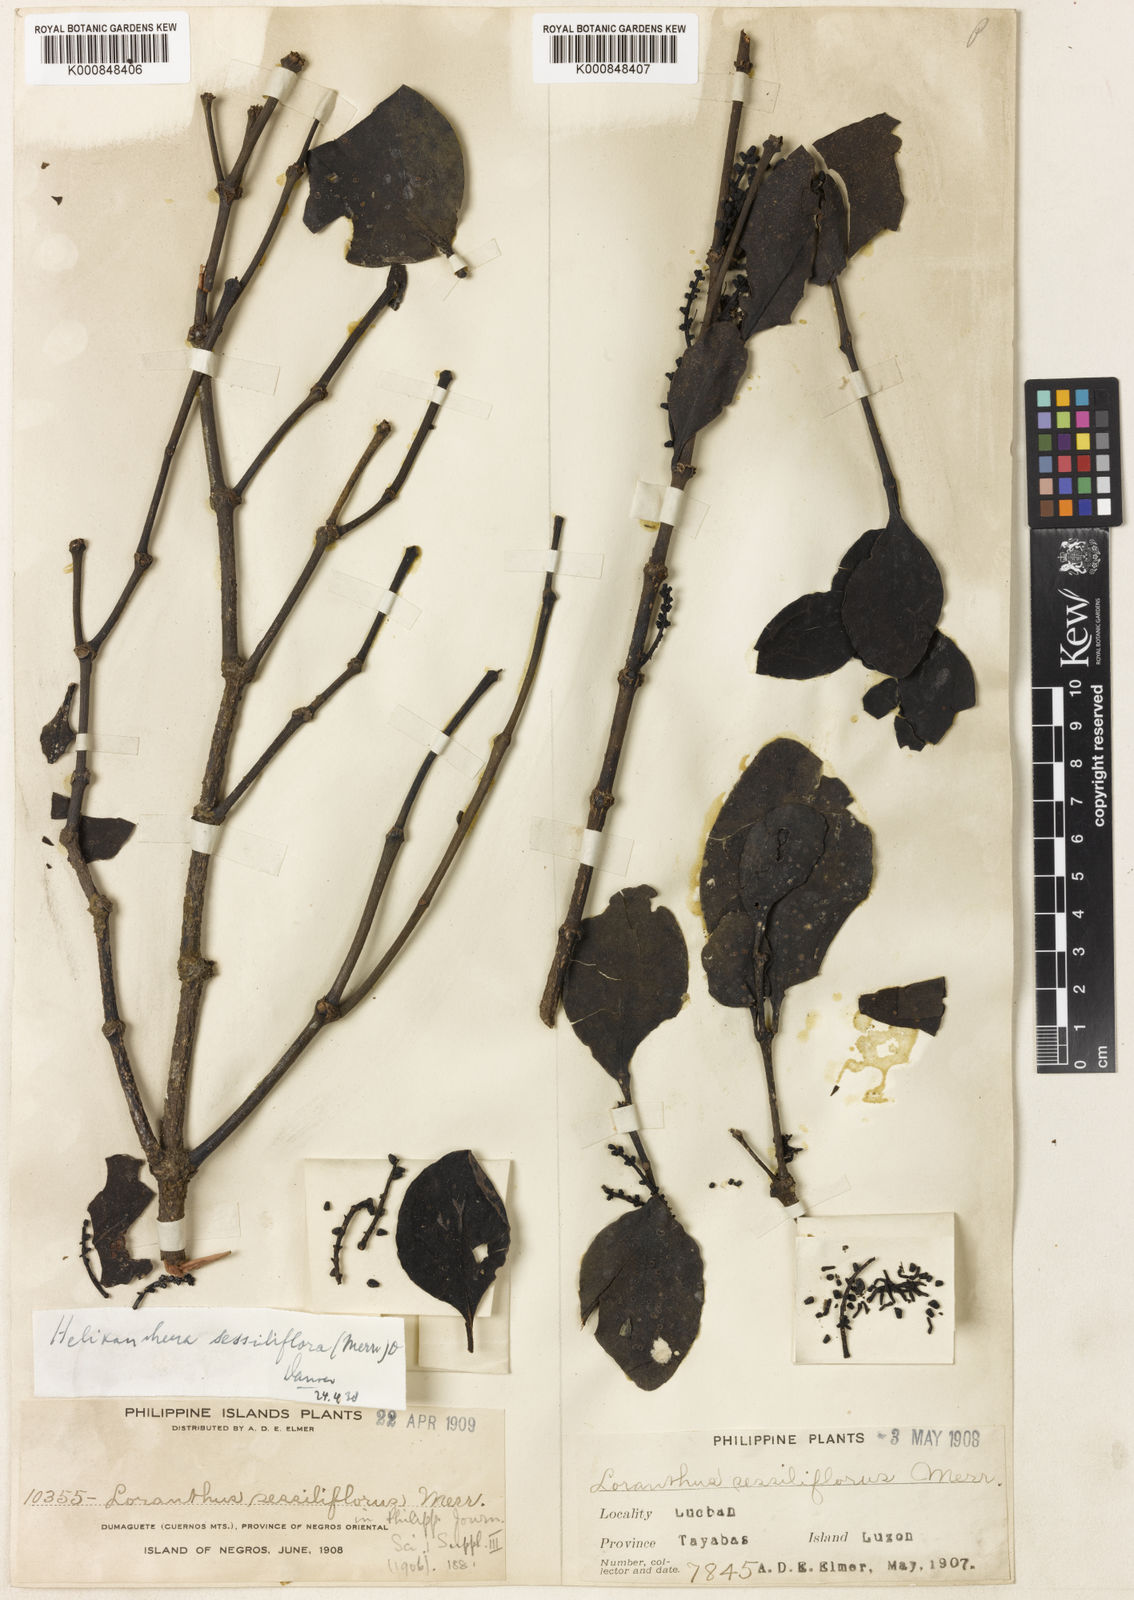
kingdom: Plantae
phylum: Tracheophyta
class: Magnoliopsida
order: Santalales
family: Loranthaceae
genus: Helixanthera
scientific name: Helixanthera sessiliflora
